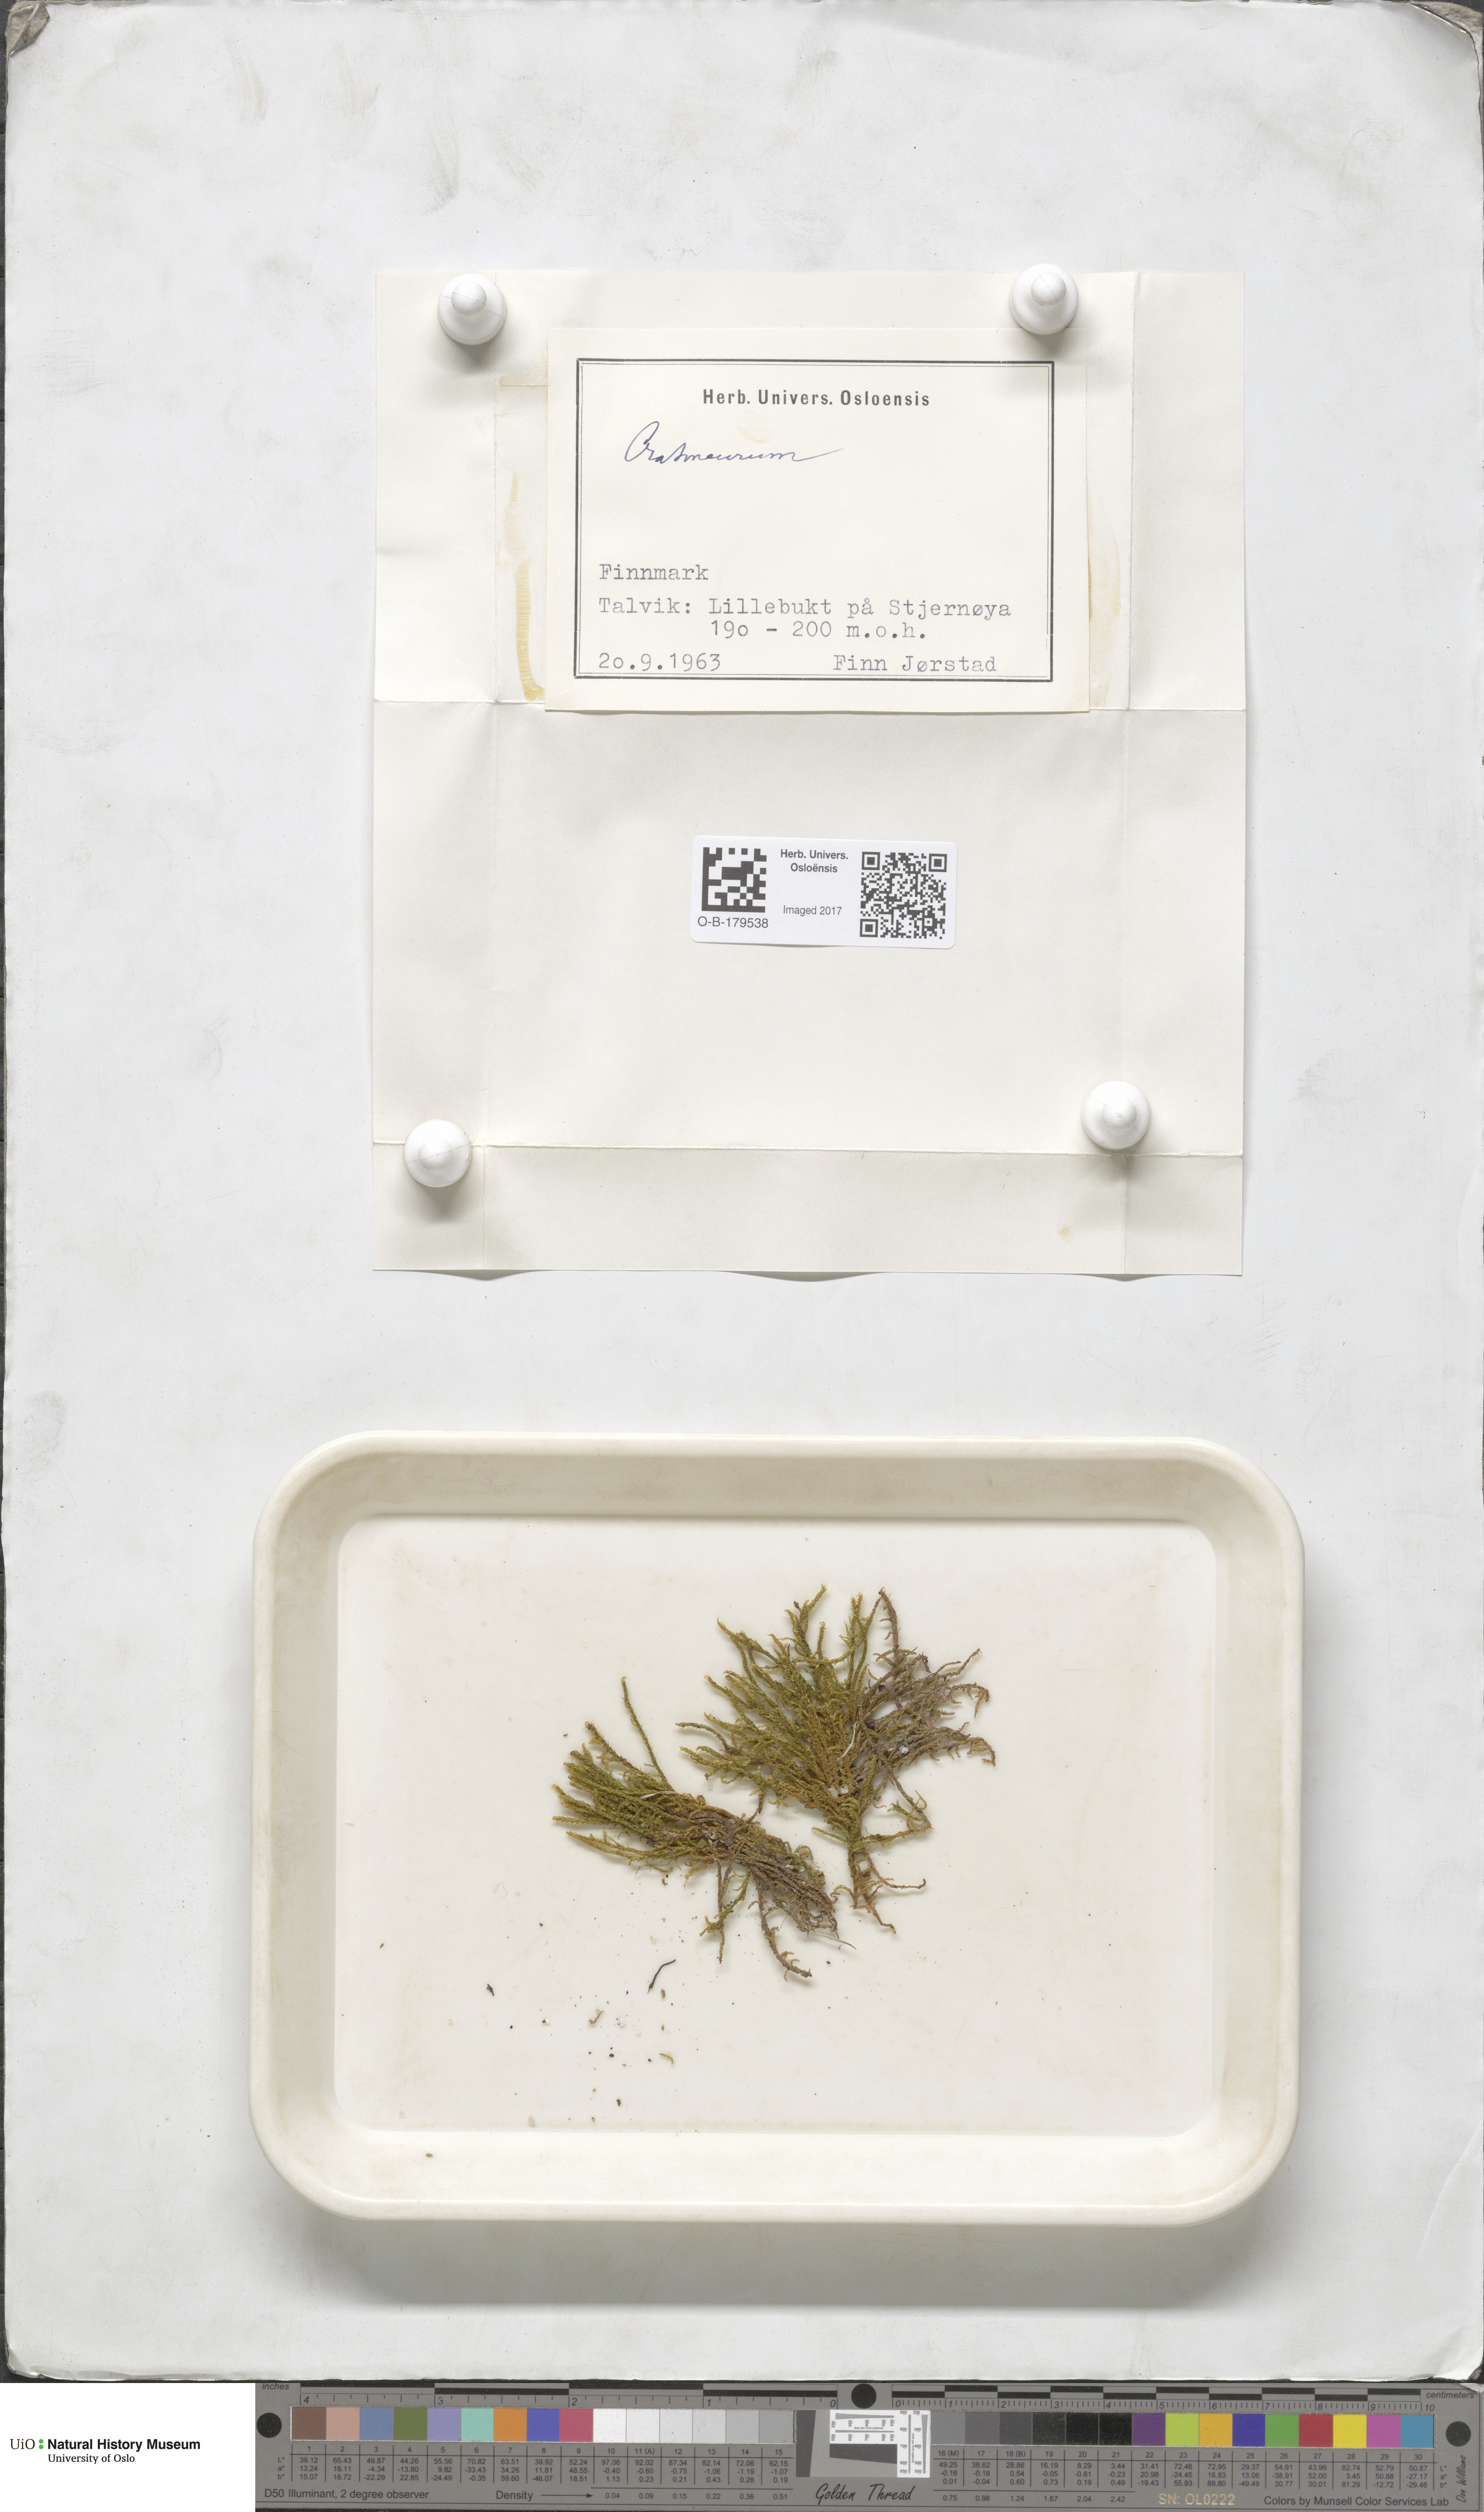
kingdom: Plantae
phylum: Bryophyta
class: Bryopsida
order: Hypnales
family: Amblystegiaceae
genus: Cratoneuron
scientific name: Cratoneuron
